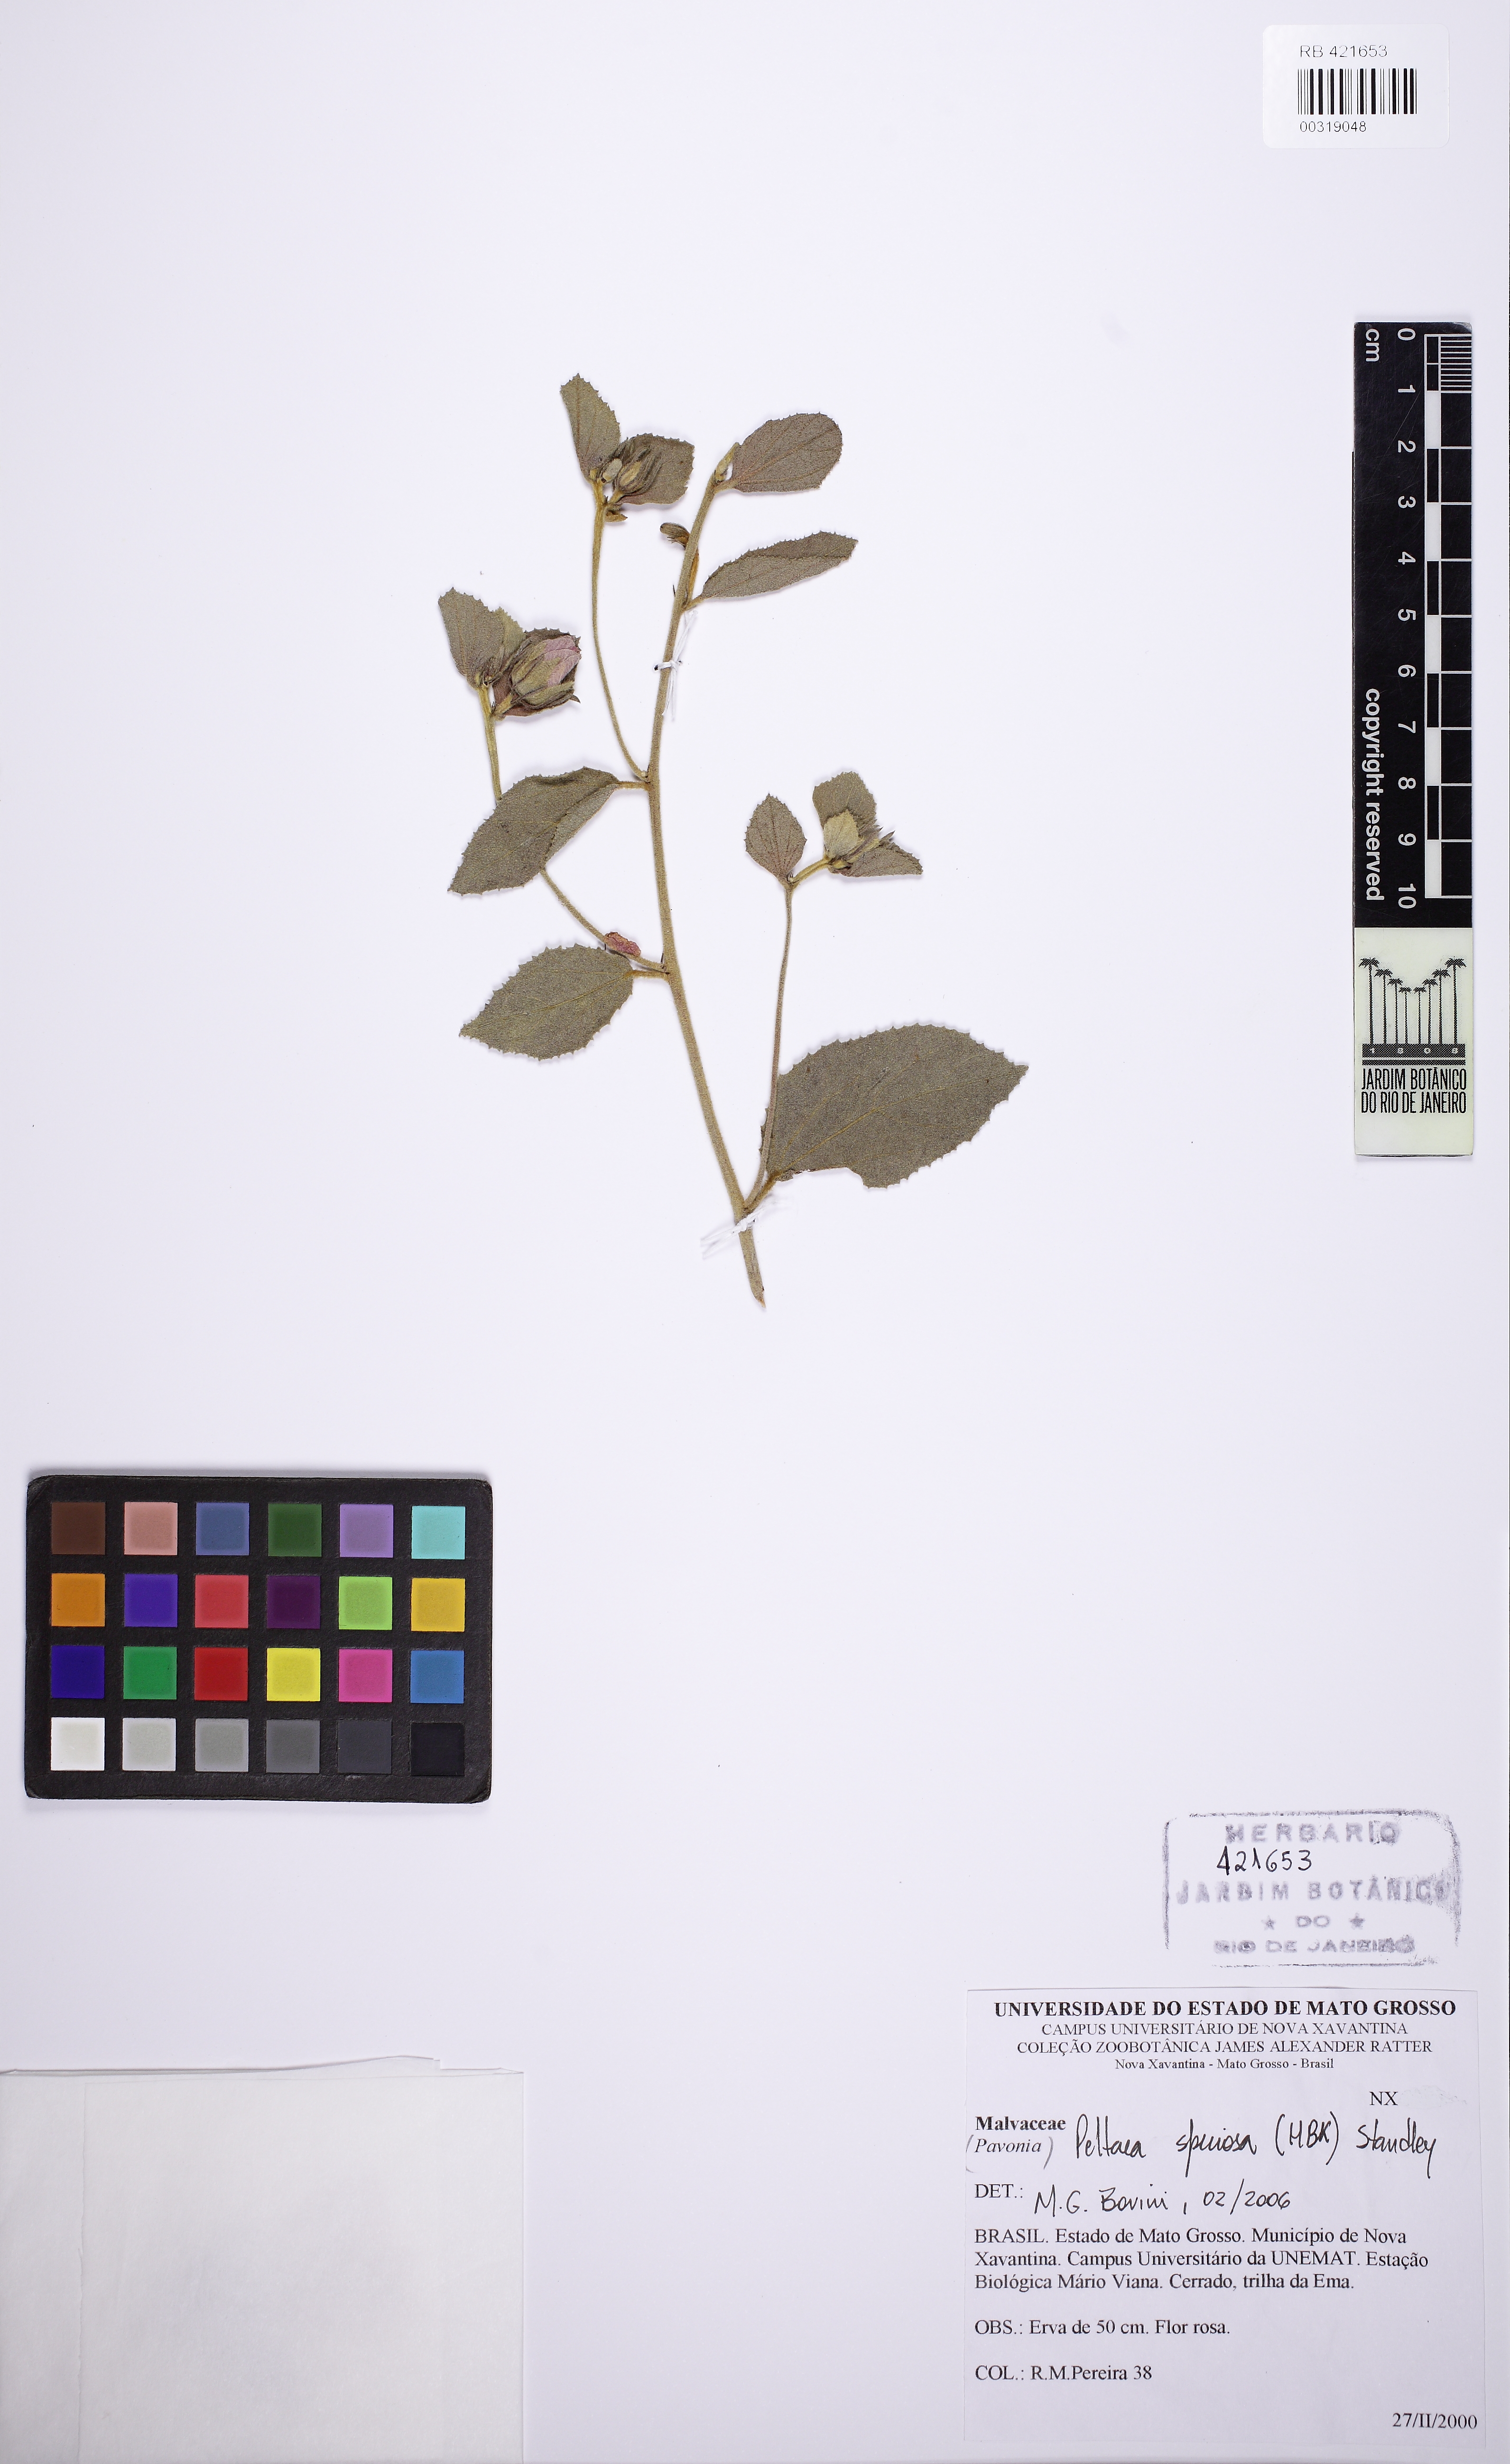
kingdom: Plantae
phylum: Tracheophyta
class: Magnoliopsida
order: Malvales
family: Malvaceae
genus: Peltaea
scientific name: Peltaea speciosa
